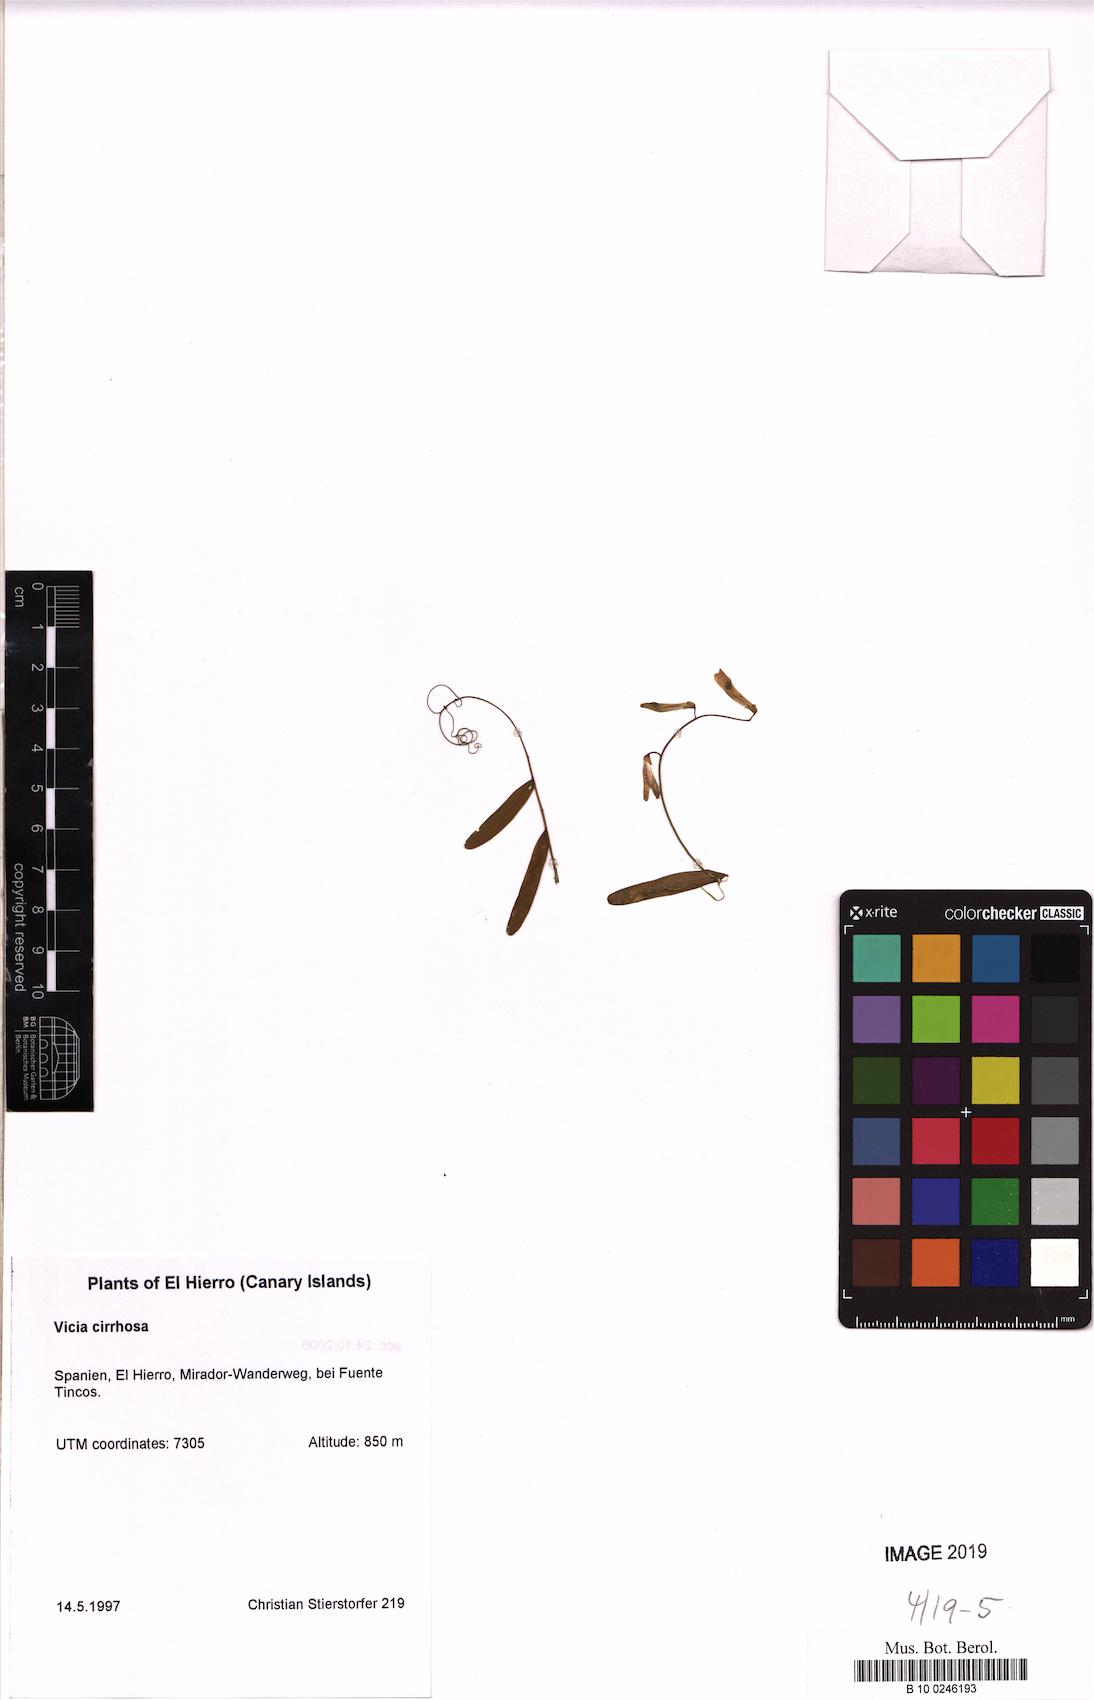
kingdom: Plantae
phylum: Tracheophyta
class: Magnoliopsida
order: Fabales
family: Fabaceae
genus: Vicia
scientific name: Vicia aphylla
